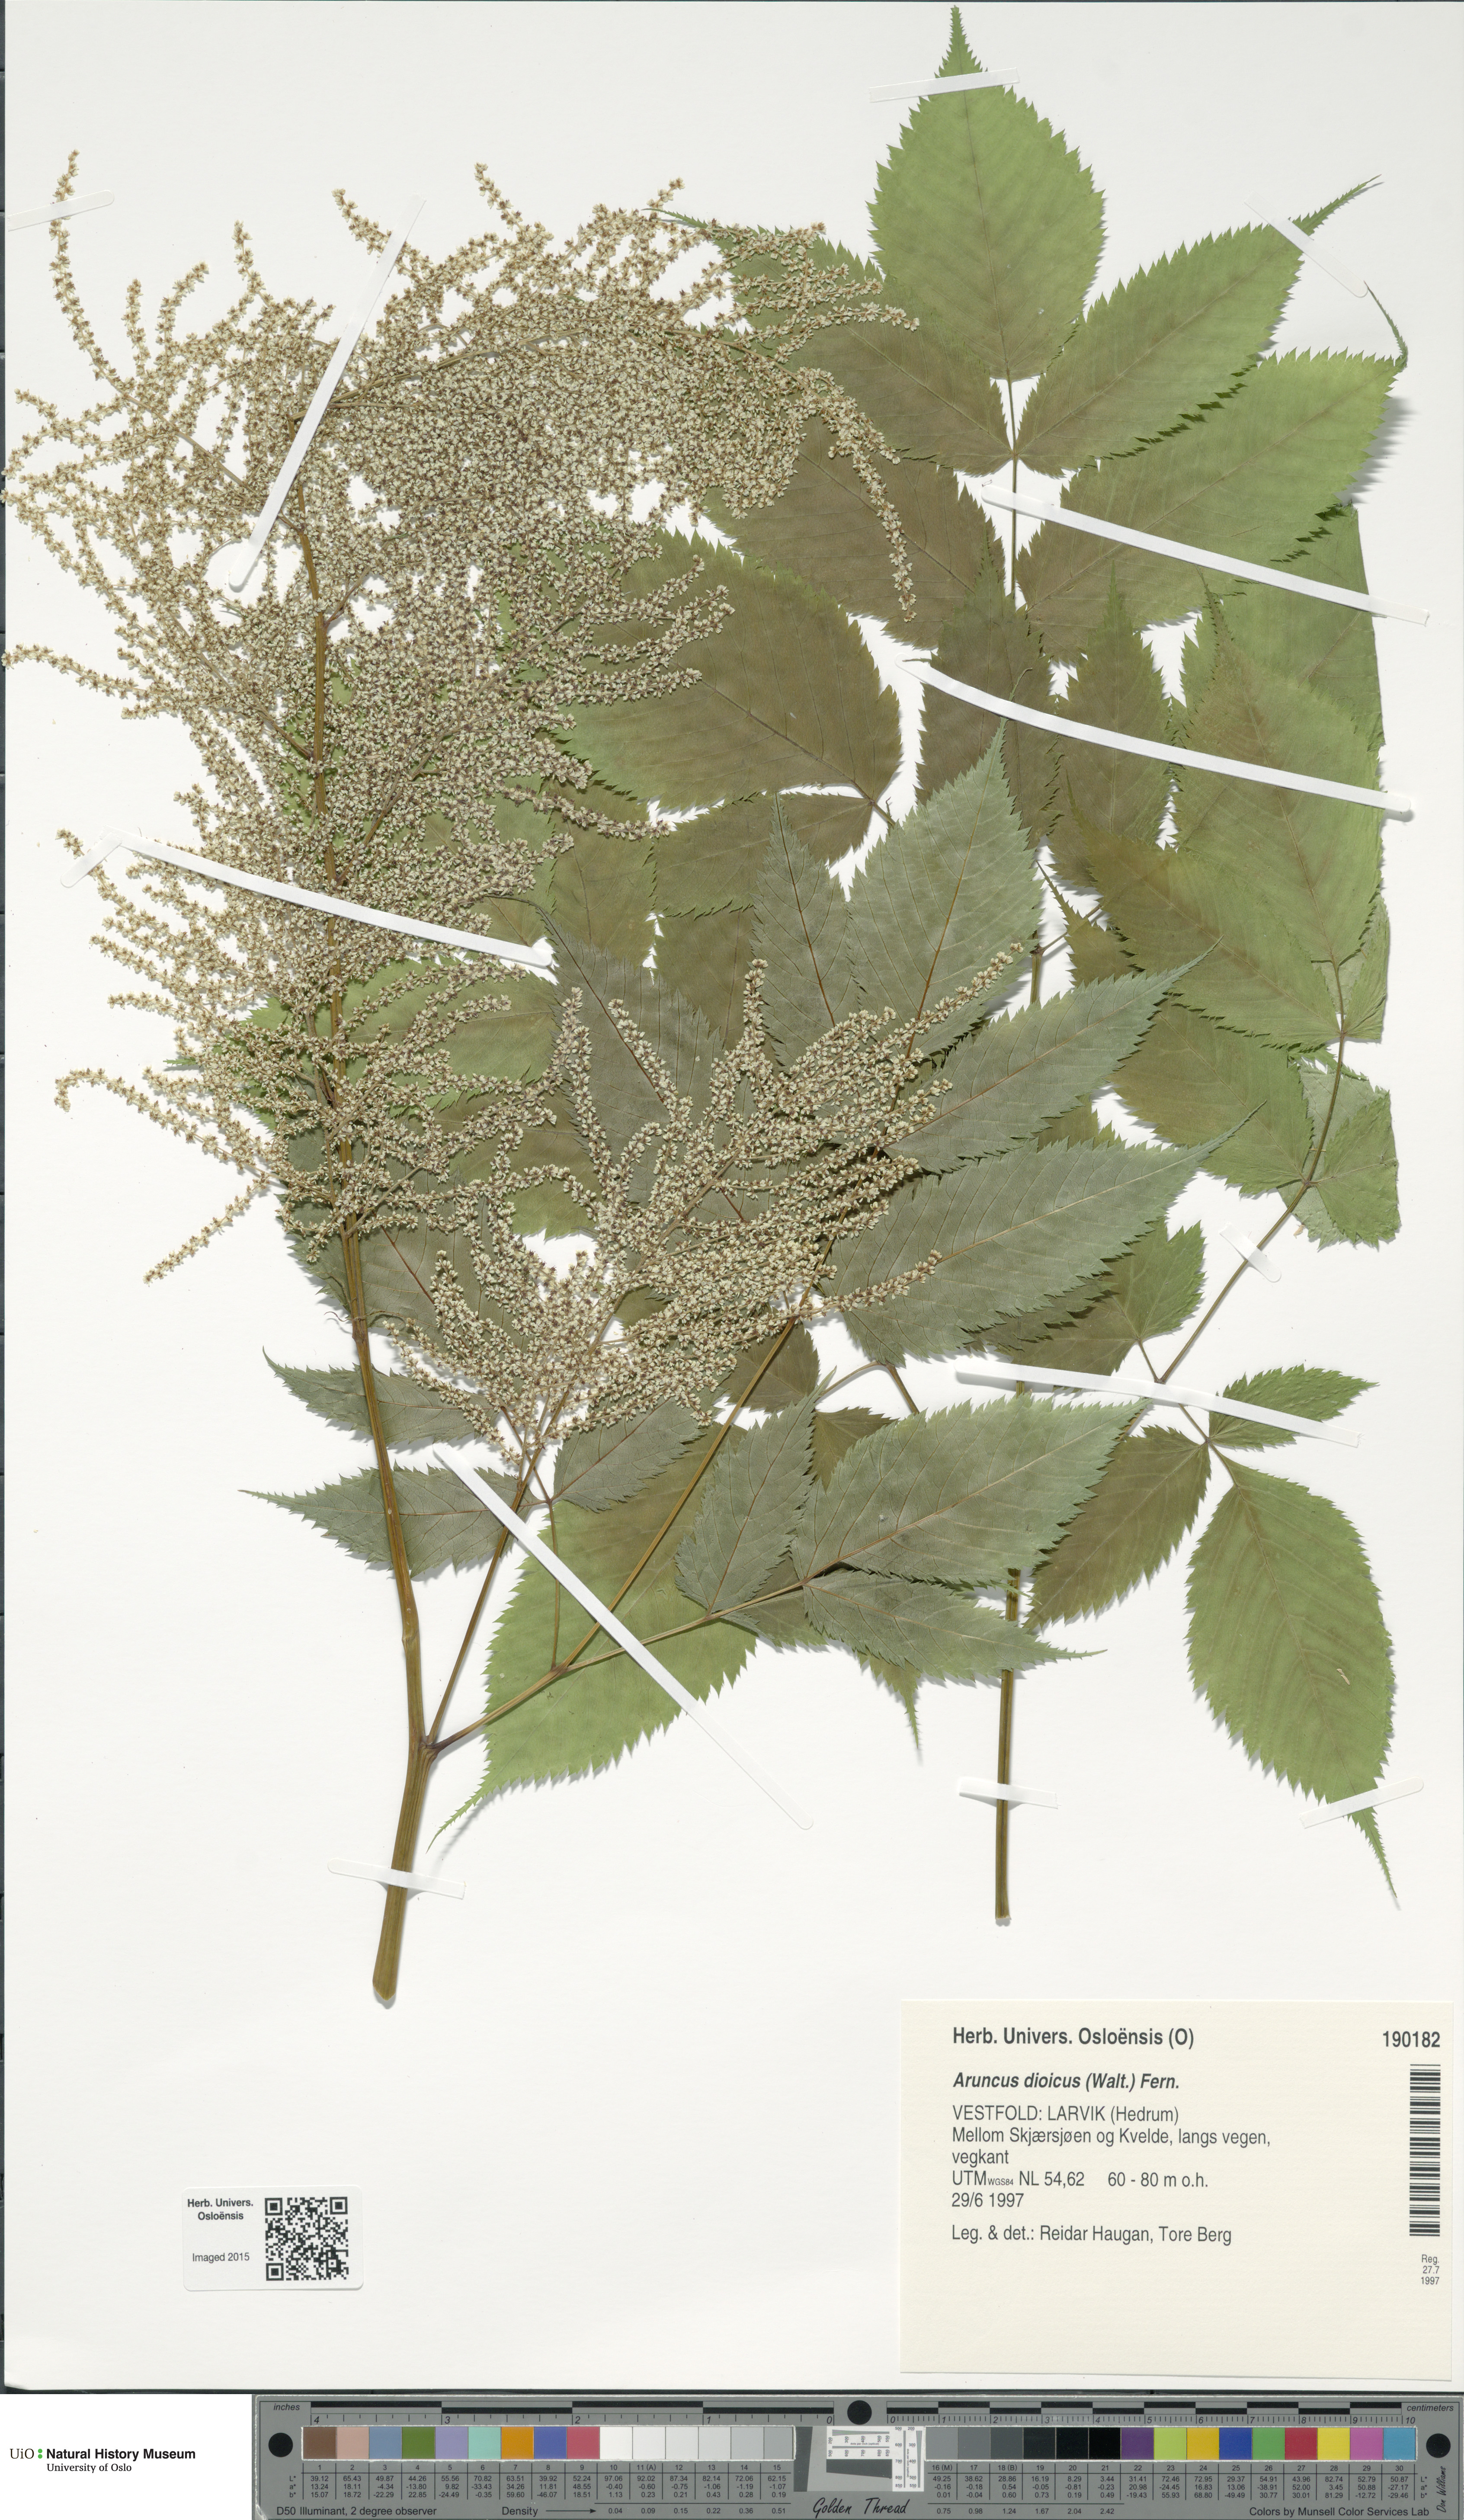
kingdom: Plantae
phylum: Tracheophyta
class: Magnoliopsida
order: Rosales
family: Rosaceae
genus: Aruncus
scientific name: Aruncus dioicus
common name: Buck's-beard
